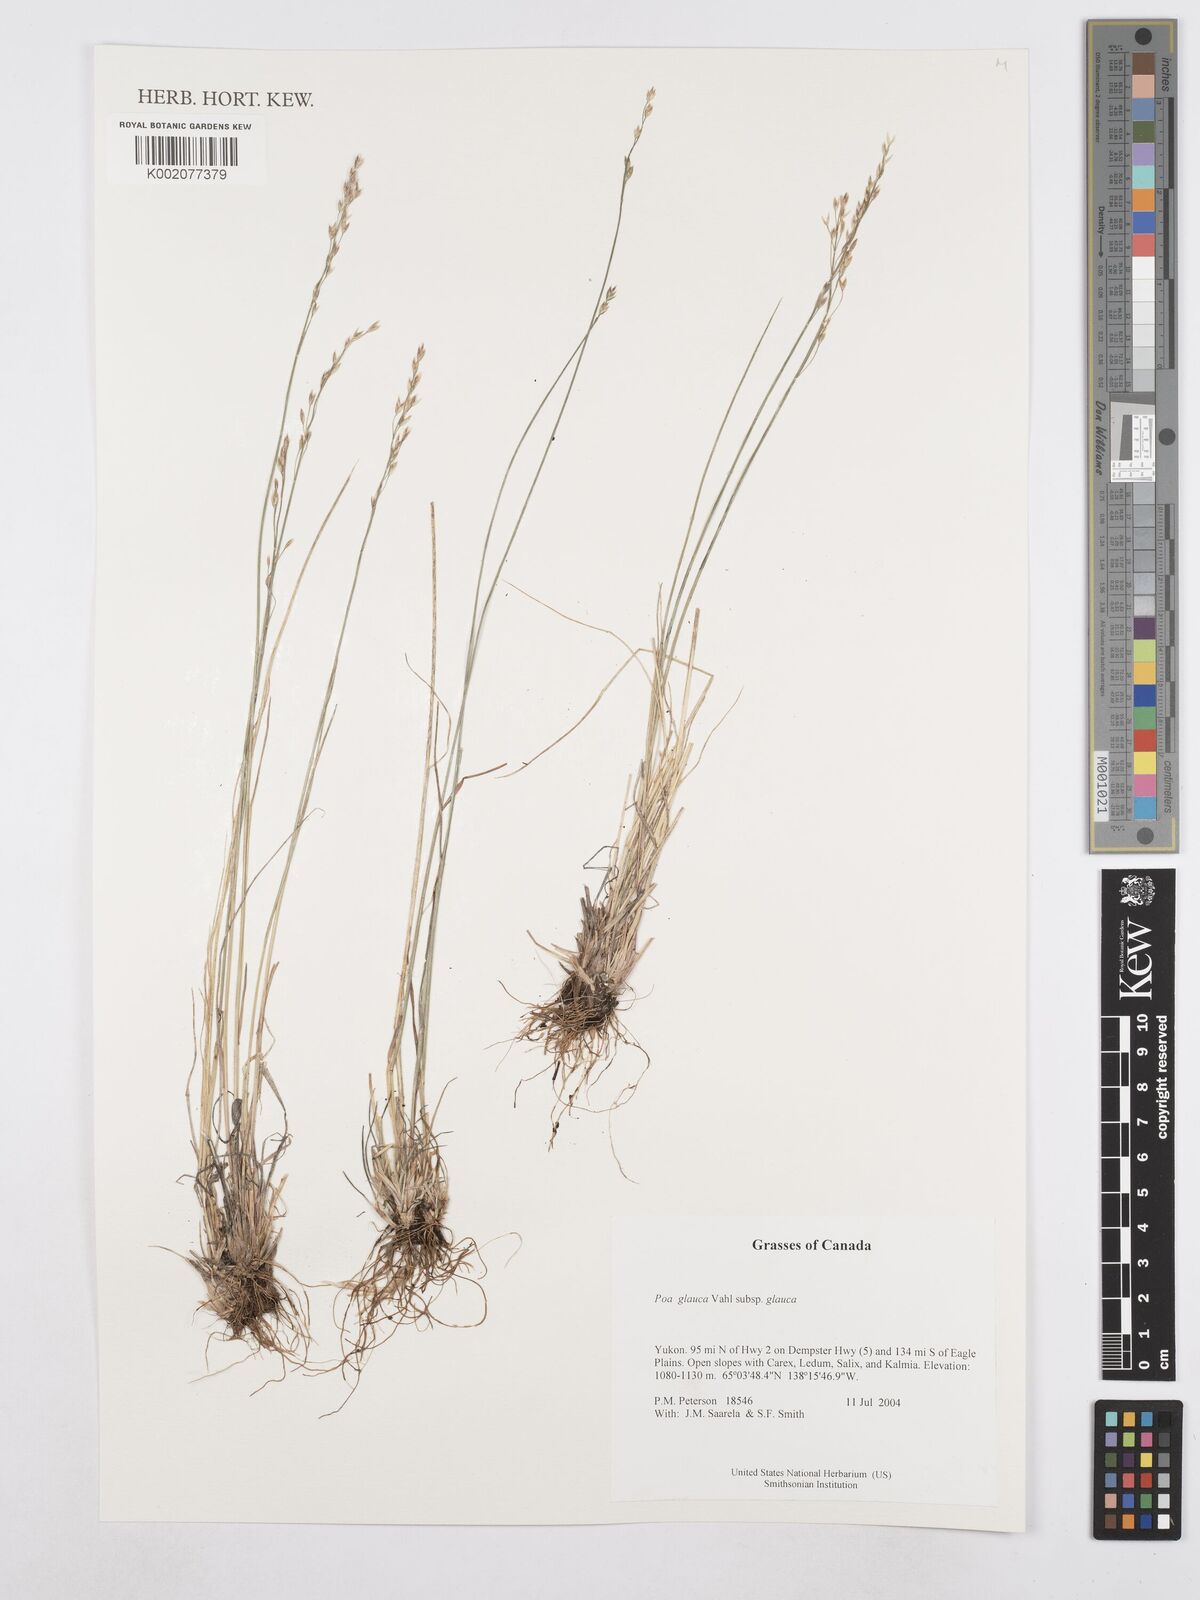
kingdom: Plantae
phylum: Tracheophyta
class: Liliopsida
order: Poales
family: Poaceae
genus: Poa
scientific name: Poa glauca
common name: Glaucous bluegrass
